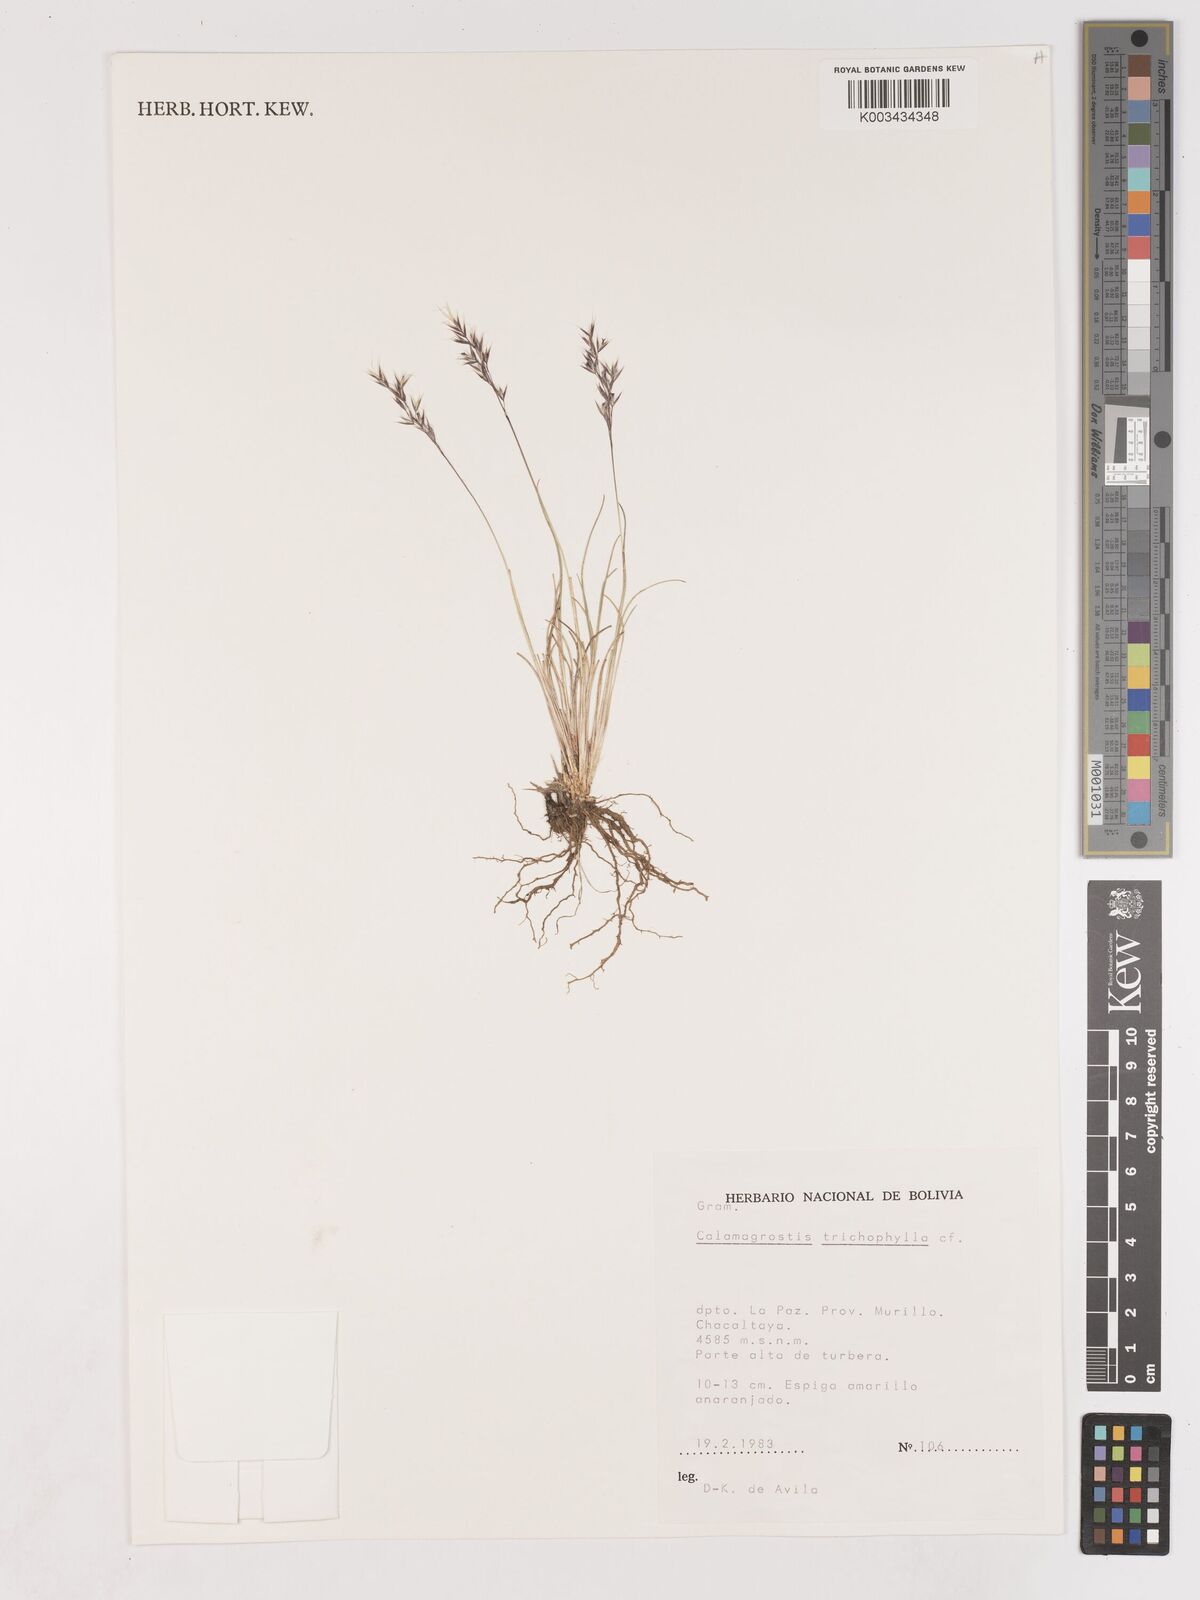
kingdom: Plantae
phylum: Tracheophyta
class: Liliopsida
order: Poales
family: Poaceae
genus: Cinnagrostis
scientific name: Cinnagrostis violacea
